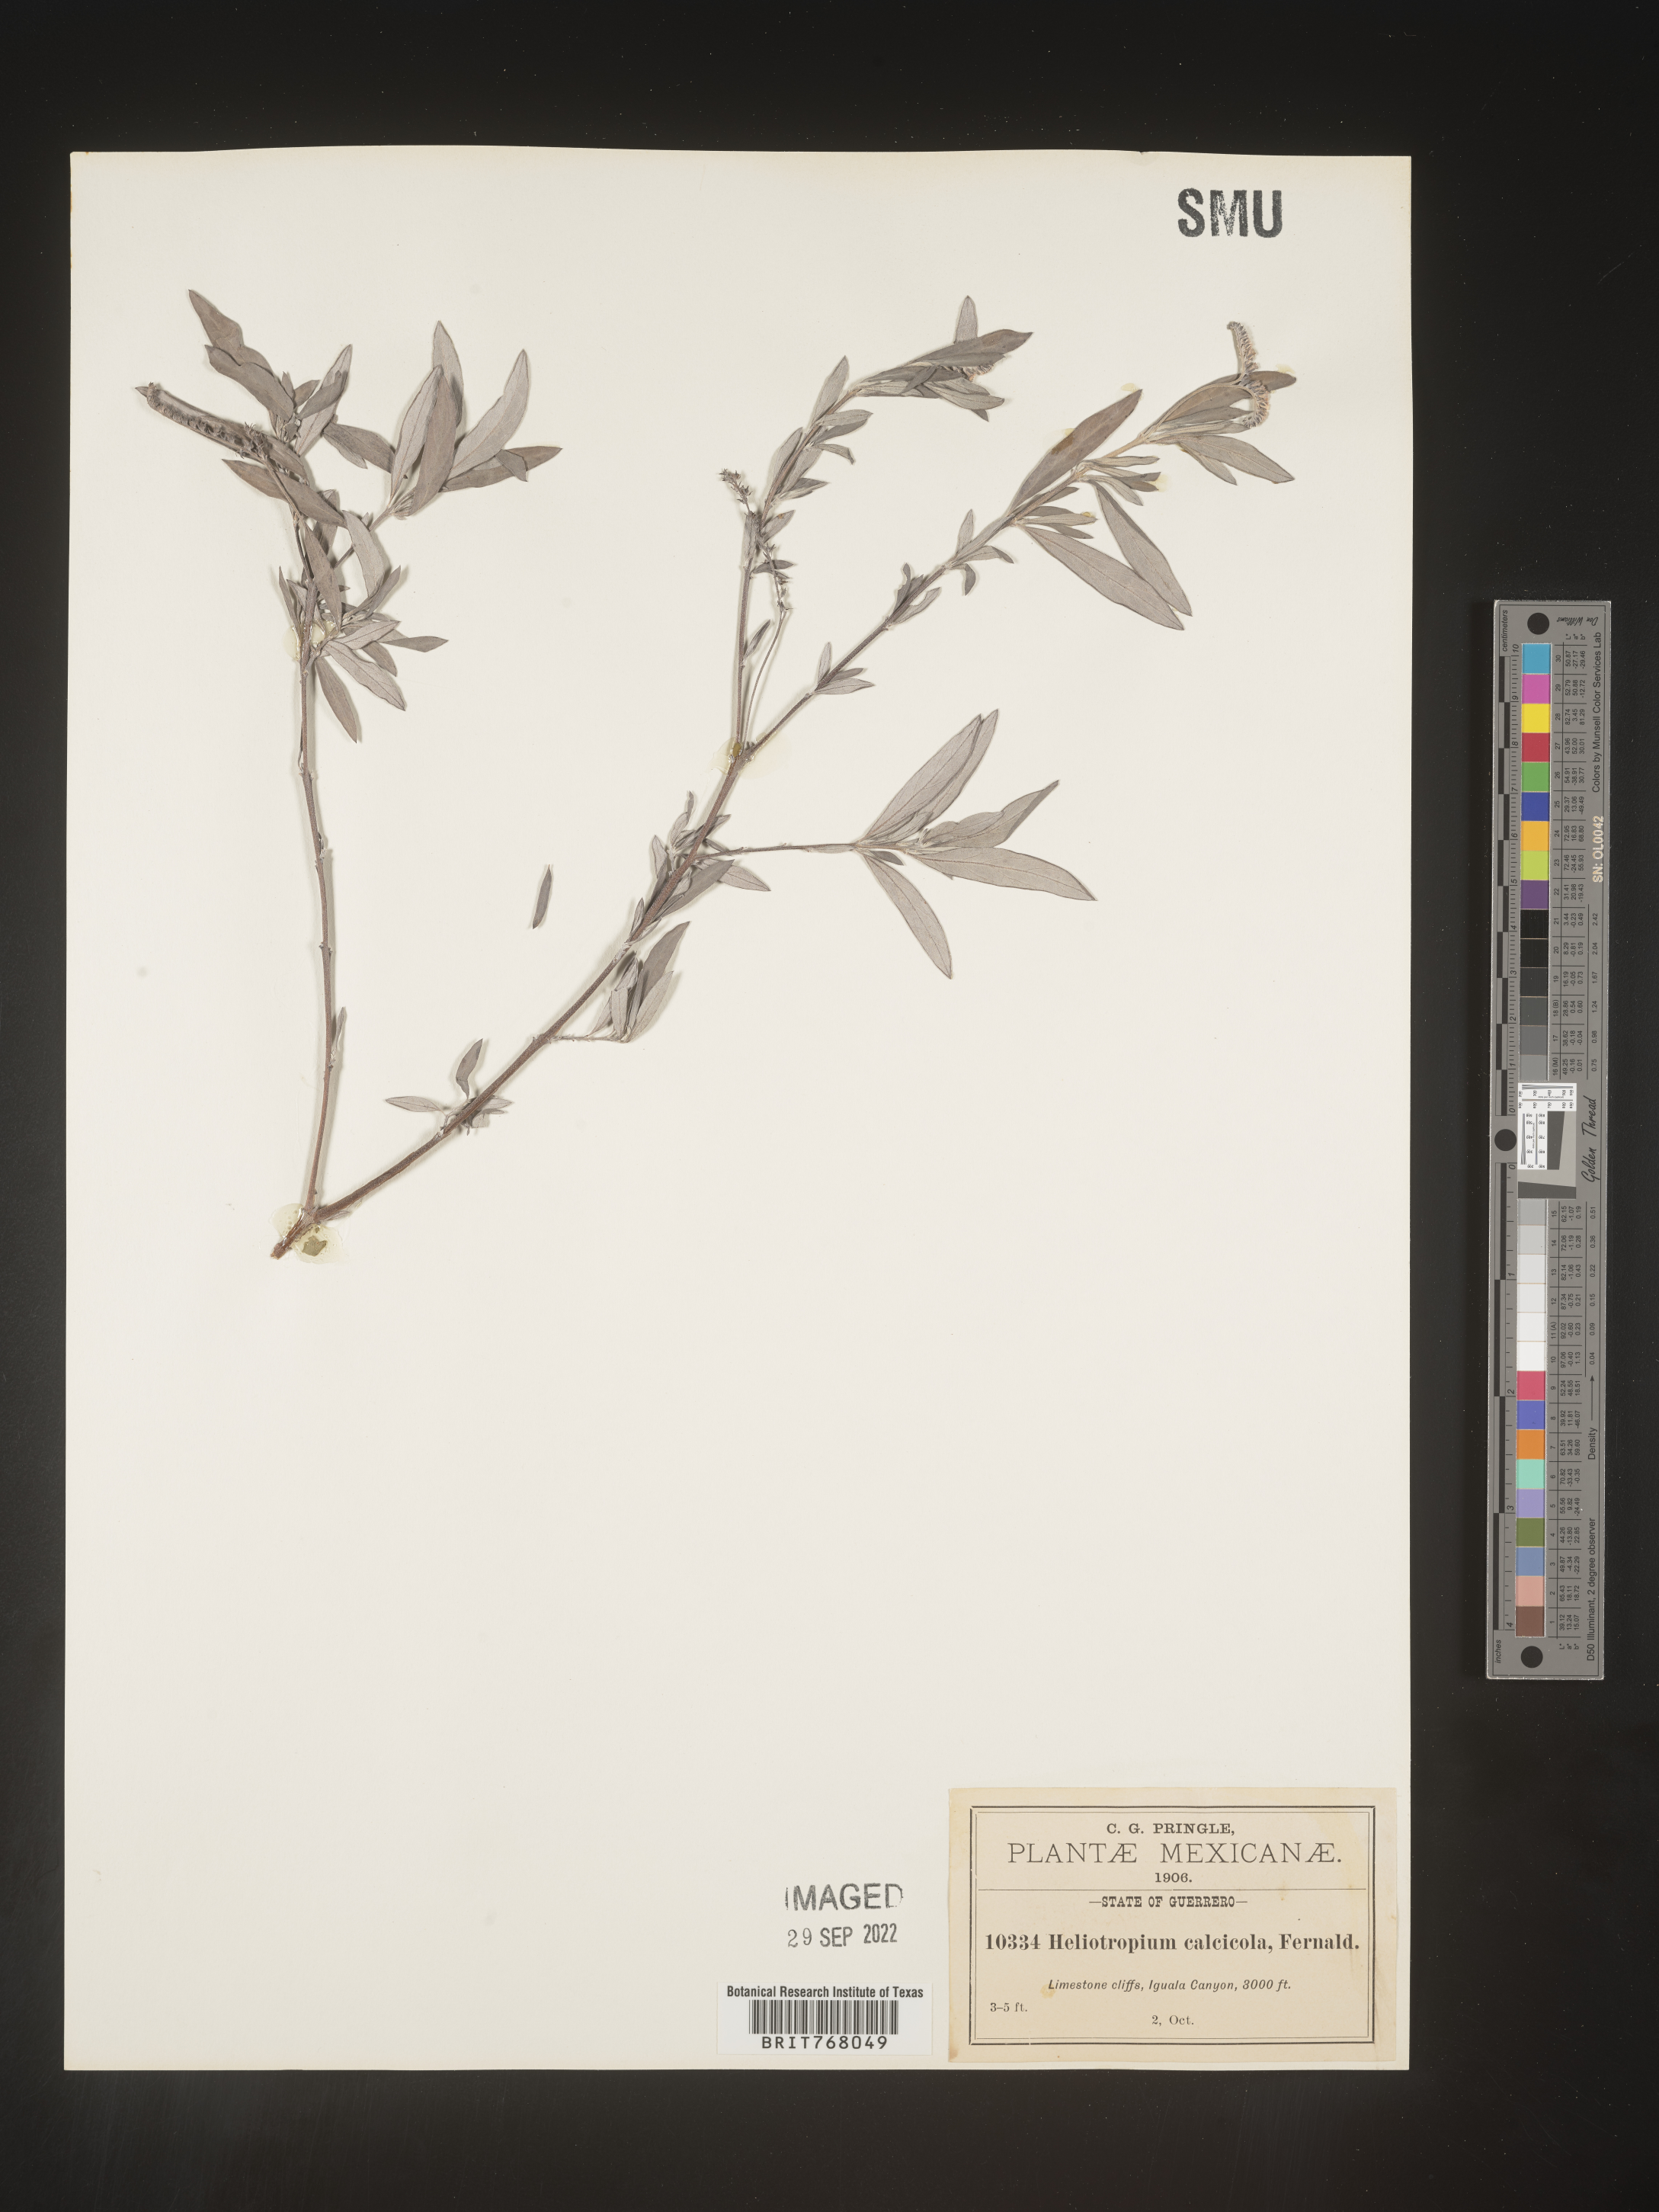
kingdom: Plantae
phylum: Tracheophyta
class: Magnoliopsida
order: Boraginales
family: Heliotropiaceae
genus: Heliotropium
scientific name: Heliotropium
